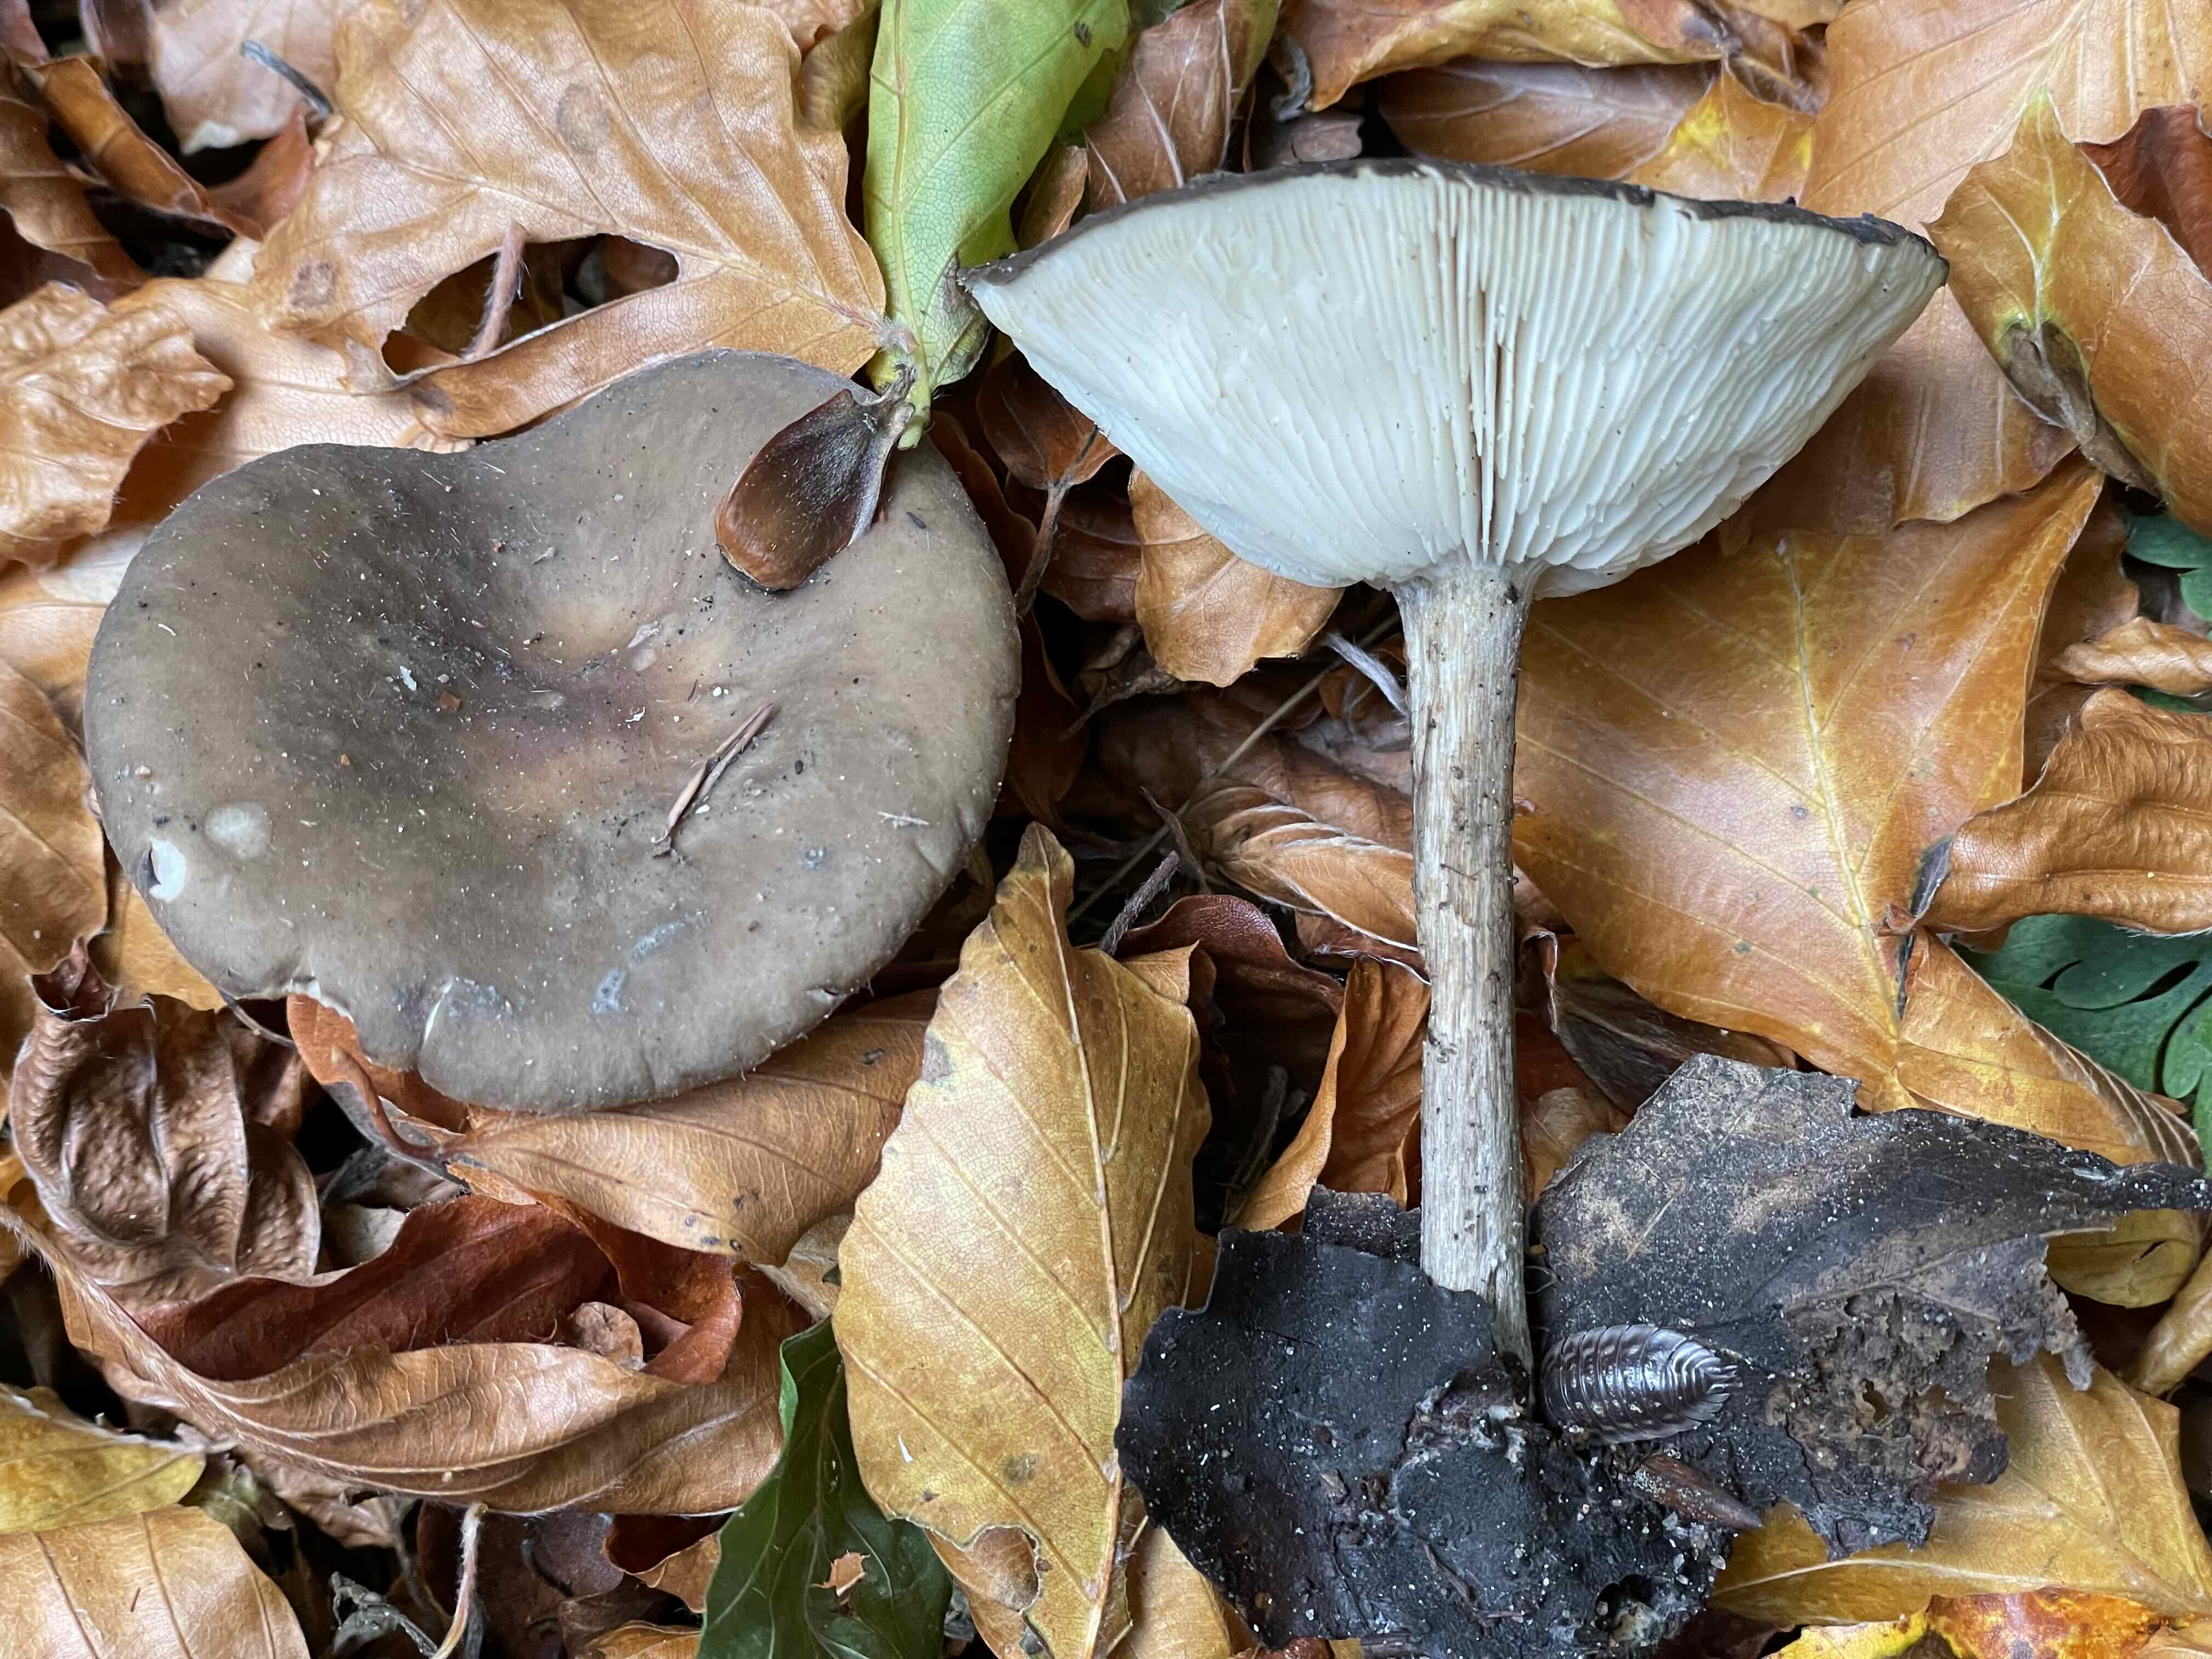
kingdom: Fungi
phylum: Basidiomycota
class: Agaricomycetes
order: Agaricales
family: Tricholomataceae
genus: Melanoleuca
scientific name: Melanoleuca
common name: munkehat
